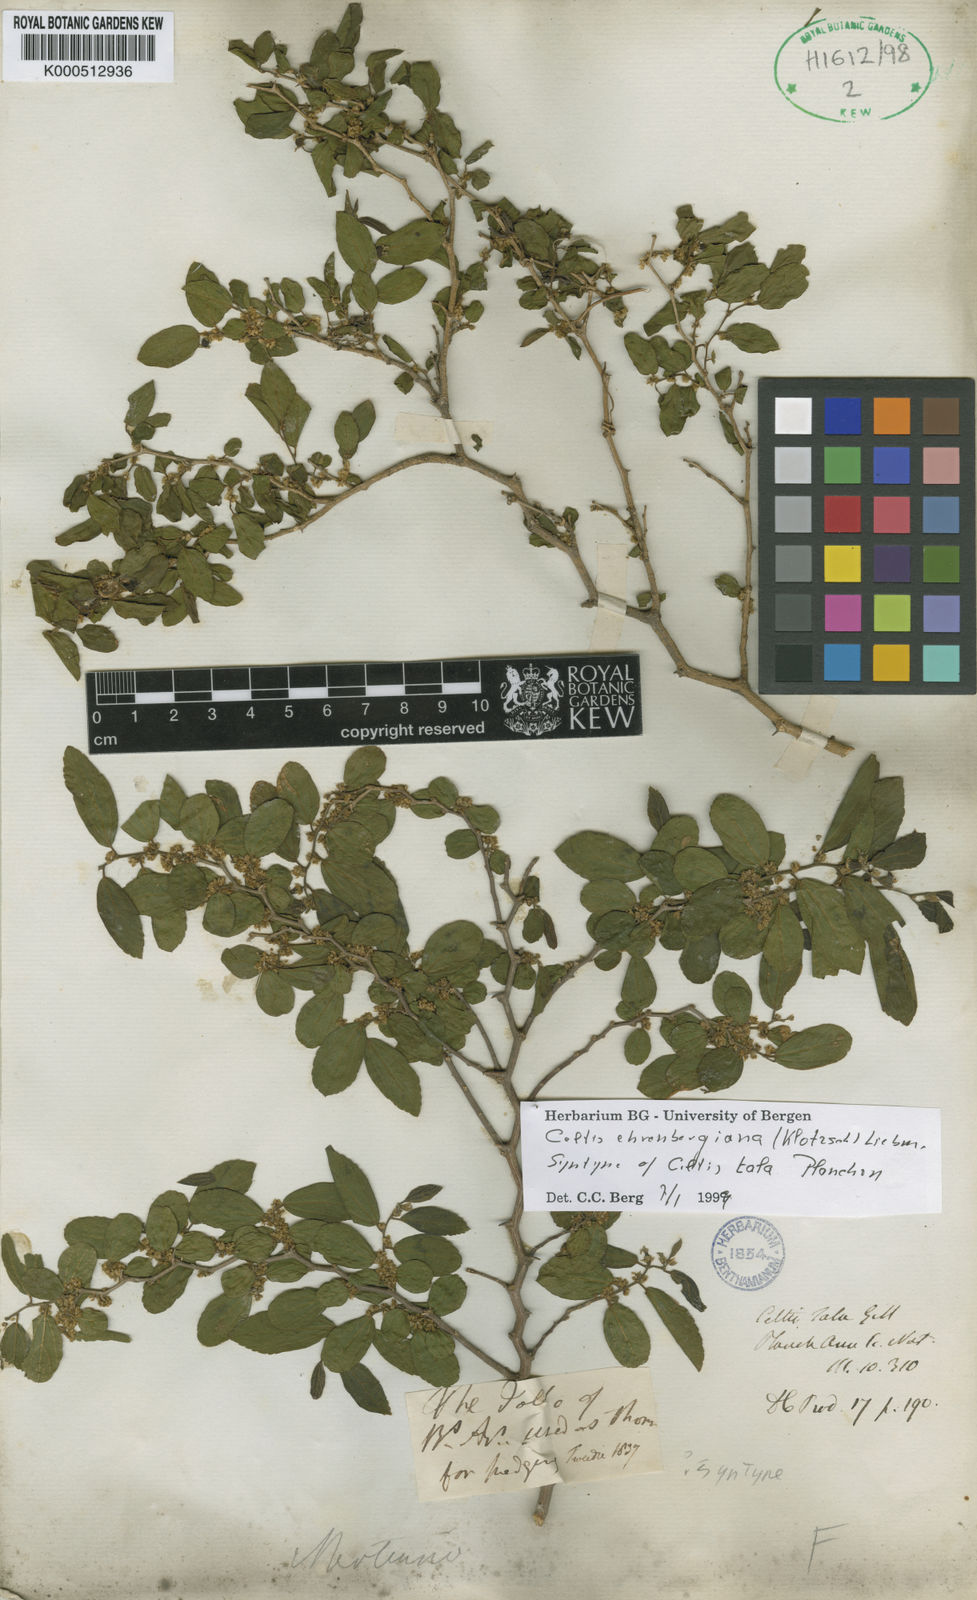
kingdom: Plantae
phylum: Tracheophyta
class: Magnoliopsida
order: Rosales
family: Cannabaceae
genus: Celtis
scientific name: Celtis iguanaea
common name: Iguana hackberry
